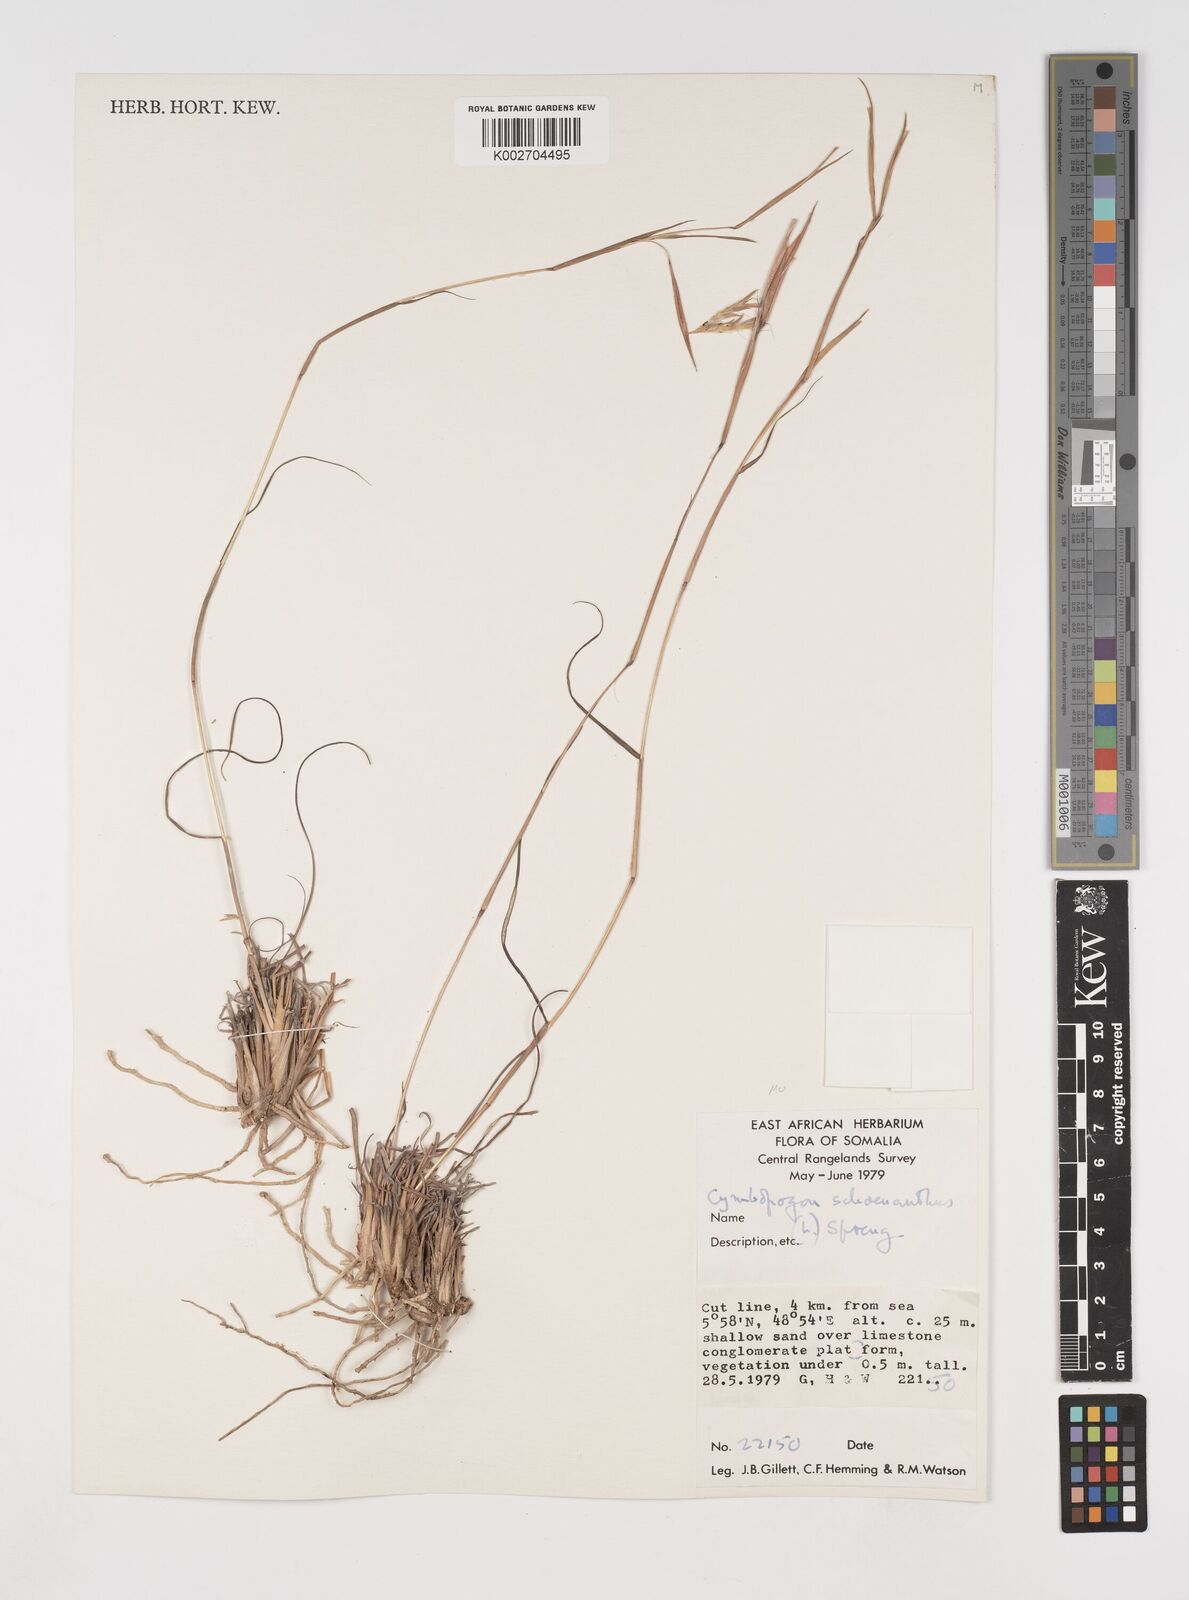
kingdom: Plantae
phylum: Tracheophyta
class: Liliopsida
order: Poales
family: Poaceae
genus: Cymbopogon
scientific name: Cymbopogon schoenanthus
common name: Geranium grass
